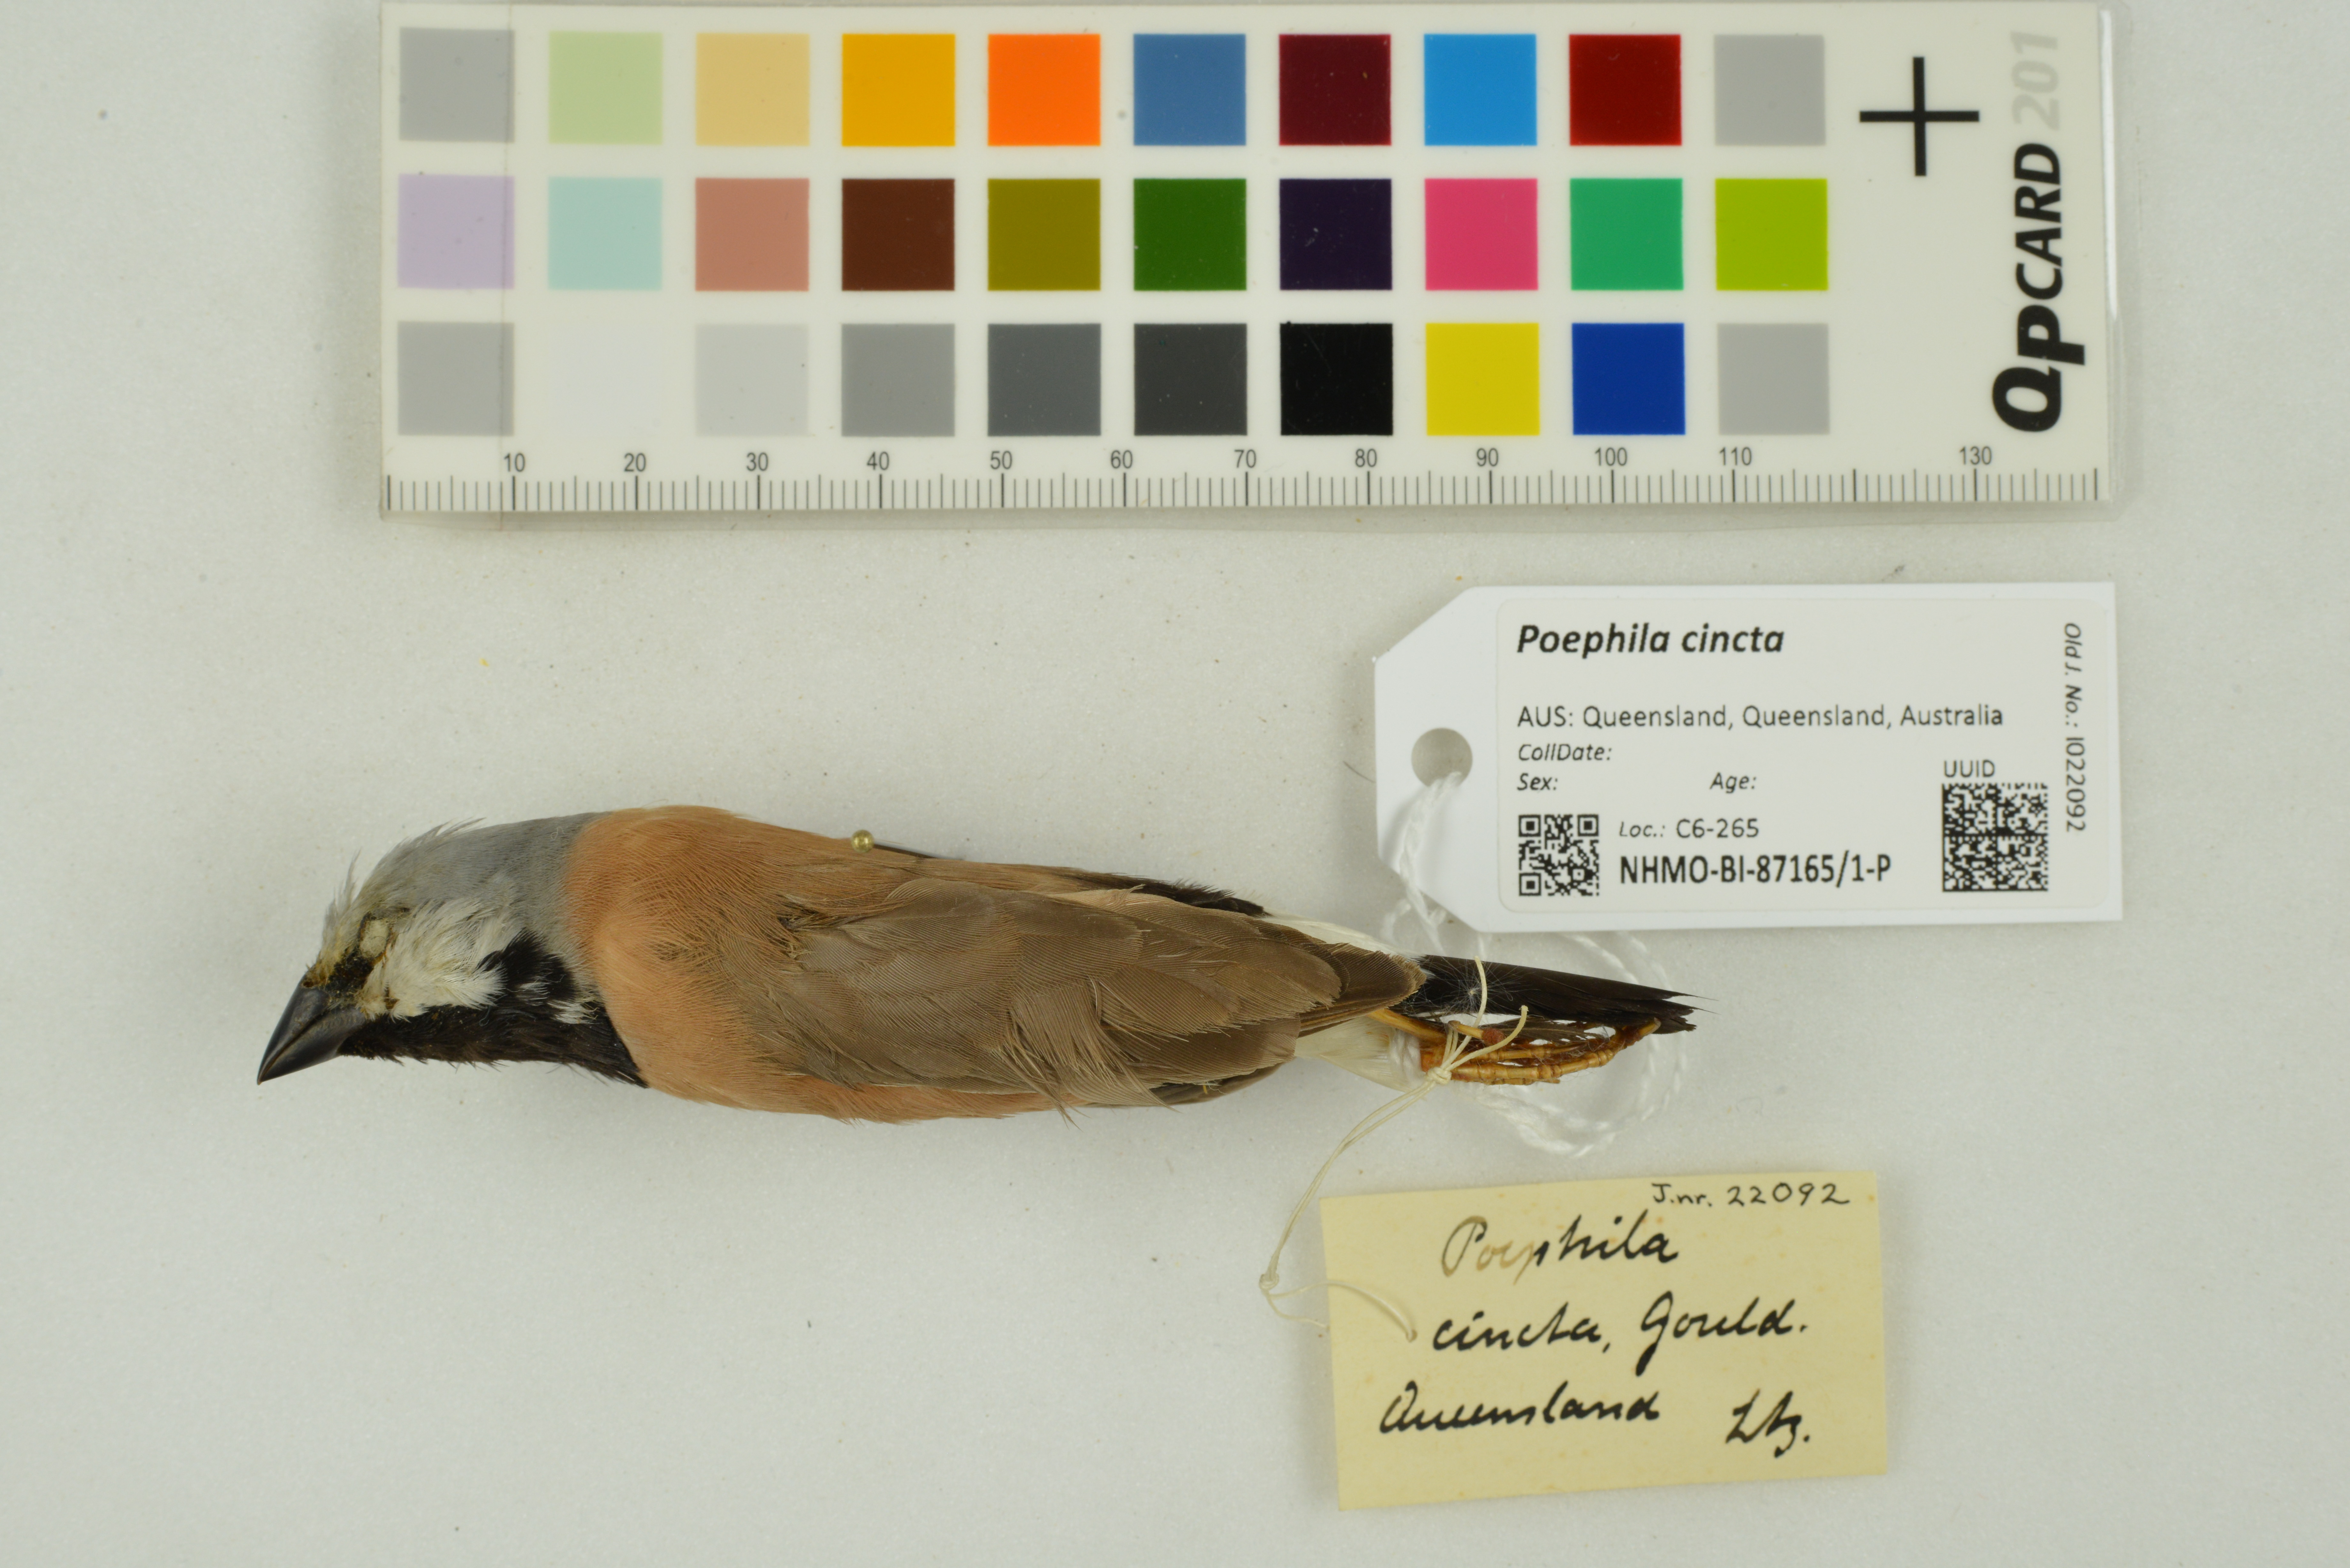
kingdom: Animalia
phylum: Chordata
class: Aves
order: Passeriformes
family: Estrildidae
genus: Poephila
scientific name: Poephila cincta
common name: Black-throated finch
